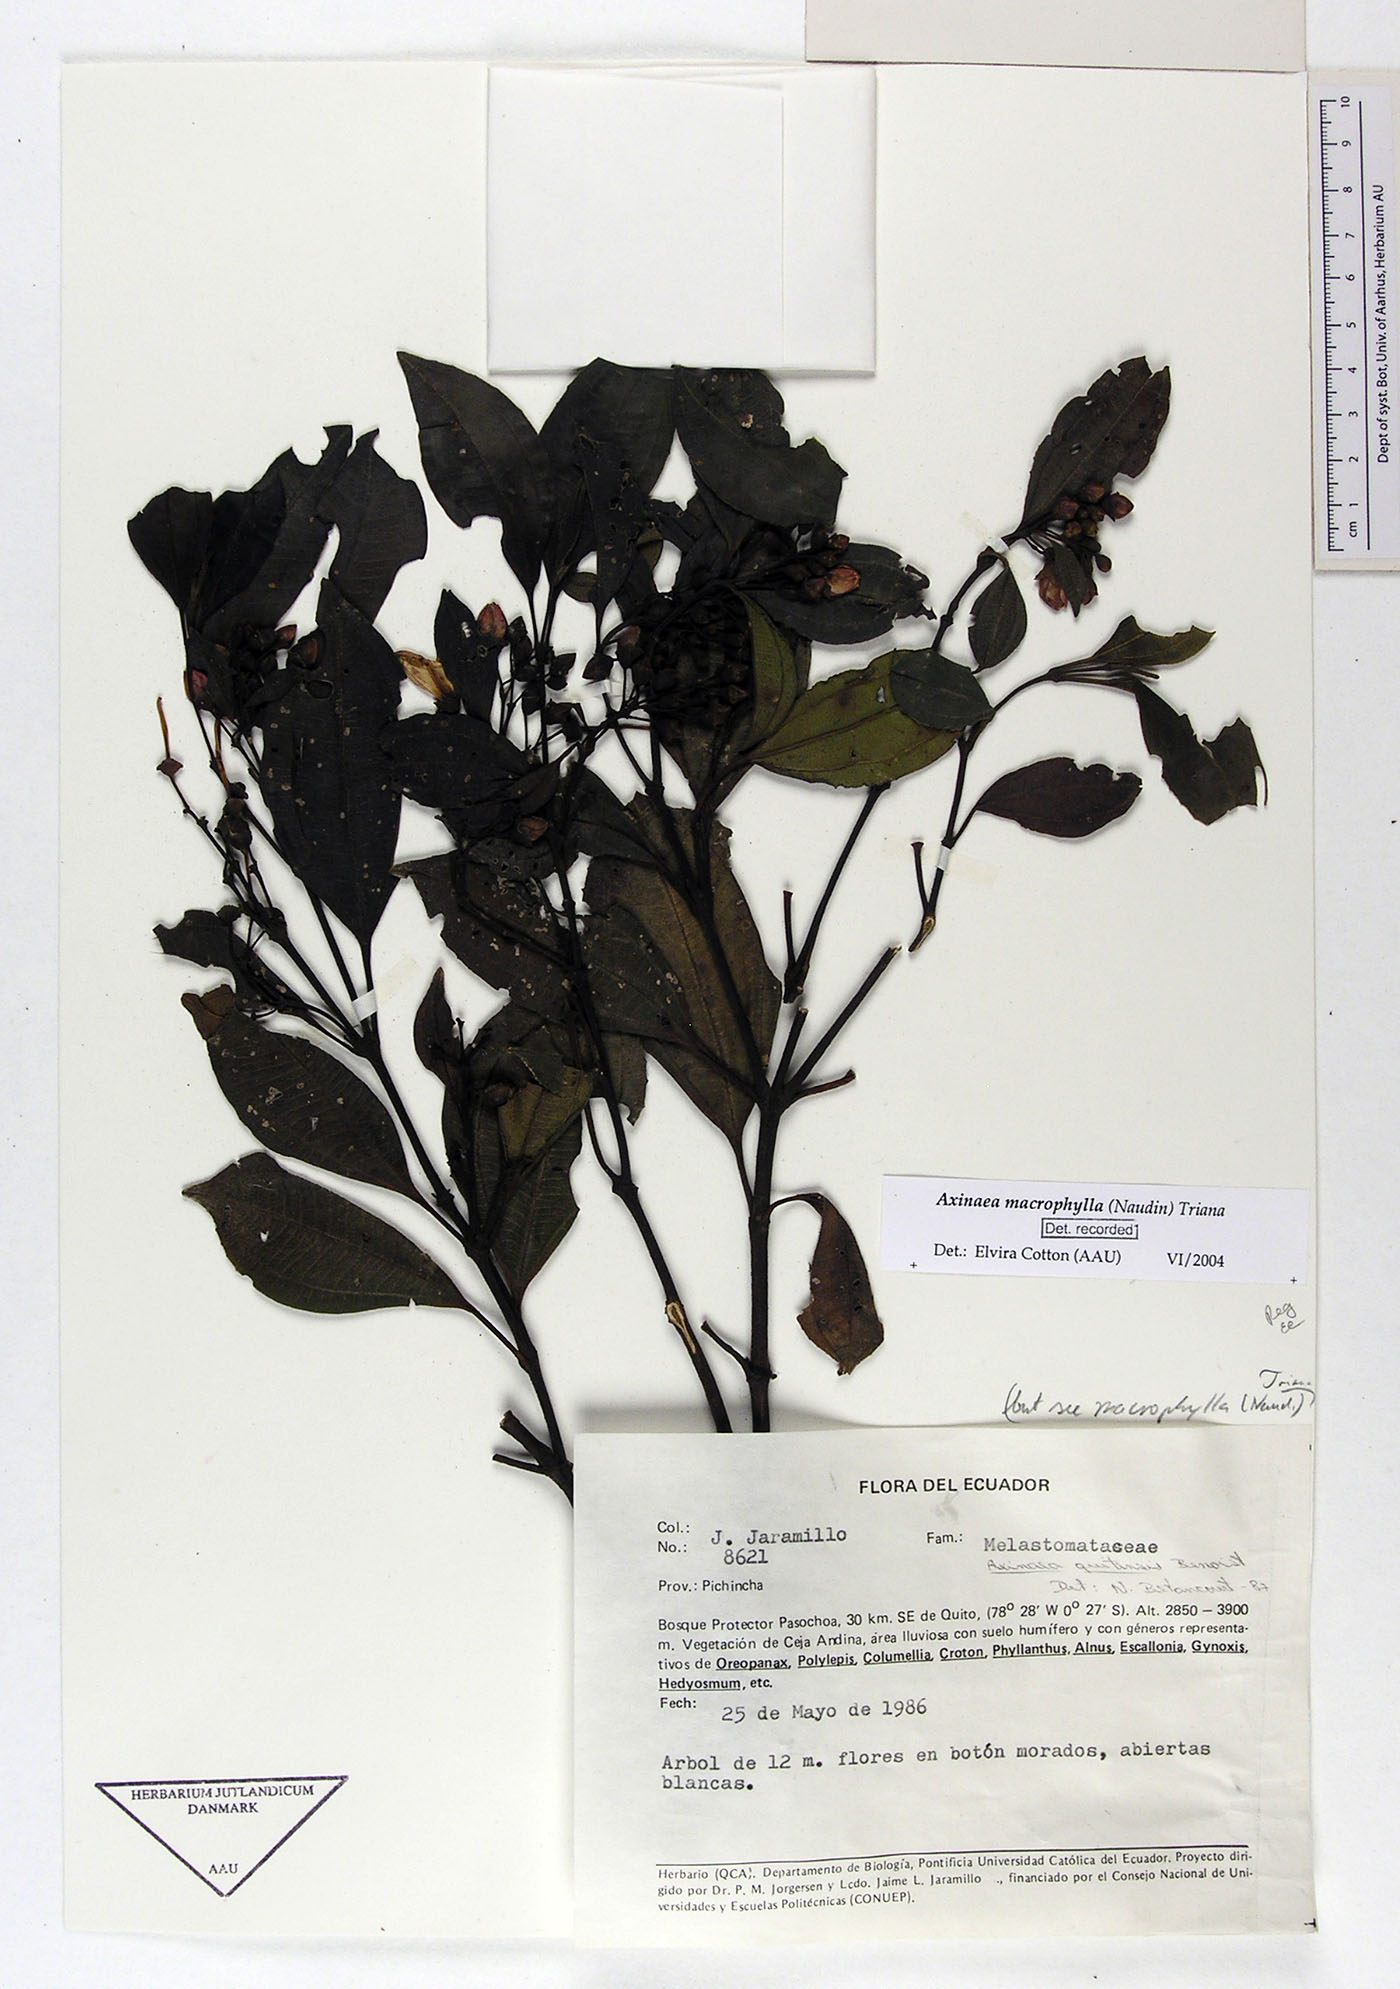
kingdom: Plantae
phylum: Tracheophyta
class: Magnoliopsida
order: Myrtales
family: Melastomataceae
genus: Axinaea
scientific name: Axinaea quitensis
